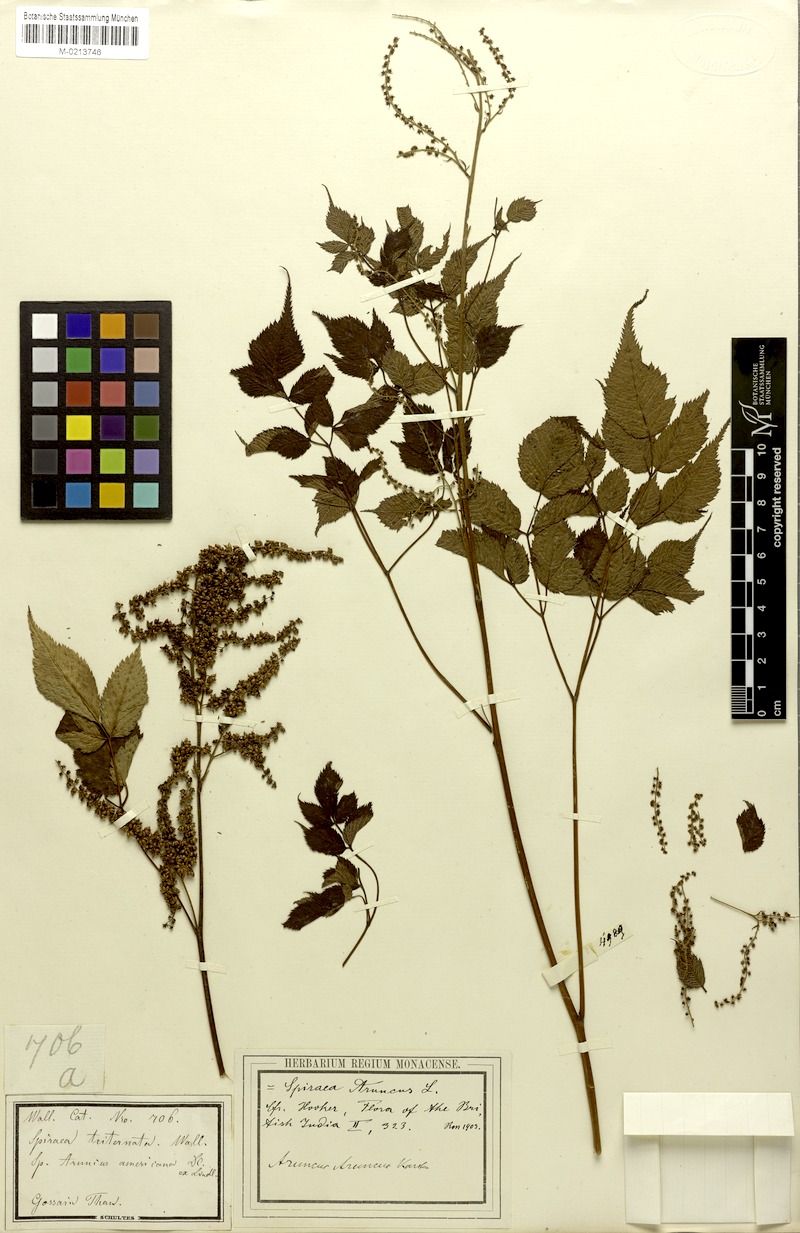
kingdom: Plantae
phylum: Tracheophyta
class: Magnoliopsida
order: Rosales
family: Rosaceae
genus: Aruncus
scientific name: Aruncus sylvester
